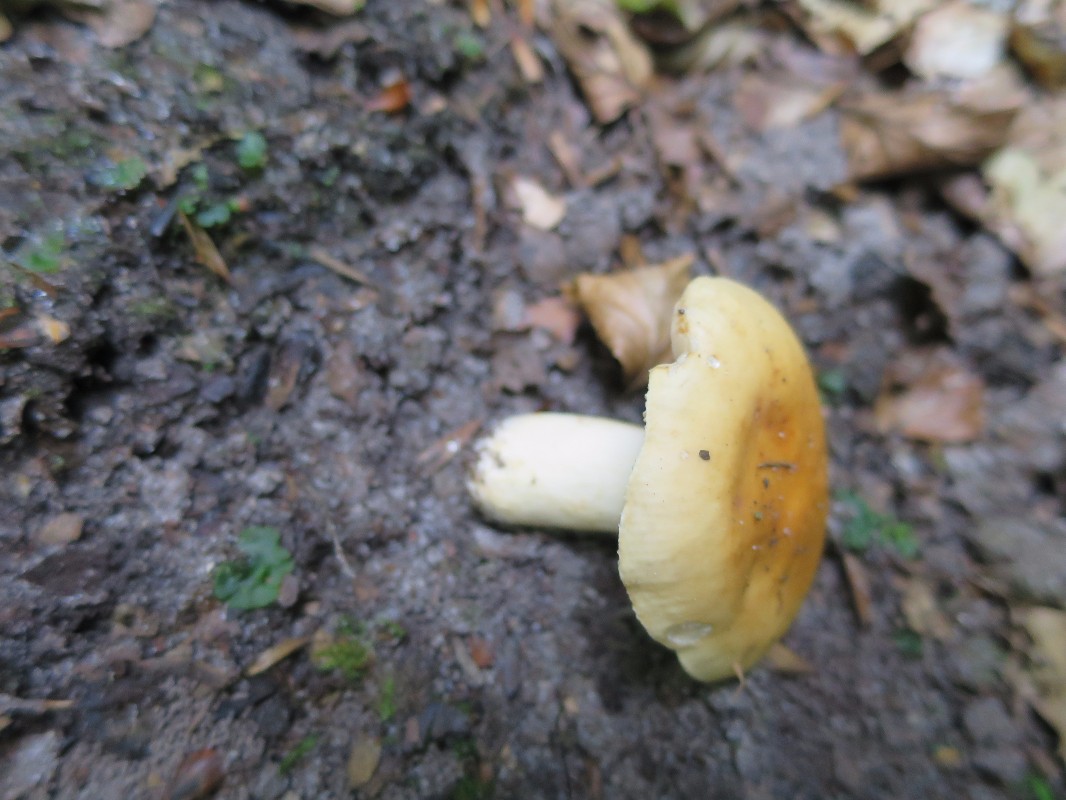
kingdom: Fungi
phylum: Basidiomycota
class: Agaricomycetes
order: Russulales
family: Russulaceae
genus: Russula
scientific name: Russula fellea
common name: galde-skørhat
